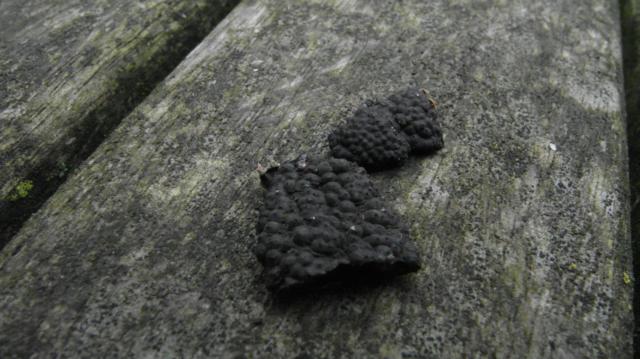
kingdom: Fungi
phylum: Ascomycota
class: Sordariomycetes
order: Xylariales
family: Hypoxylaceae
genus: Jackrogersella
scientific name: Jackrogersella multiformis
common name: foranderlig kulbær
